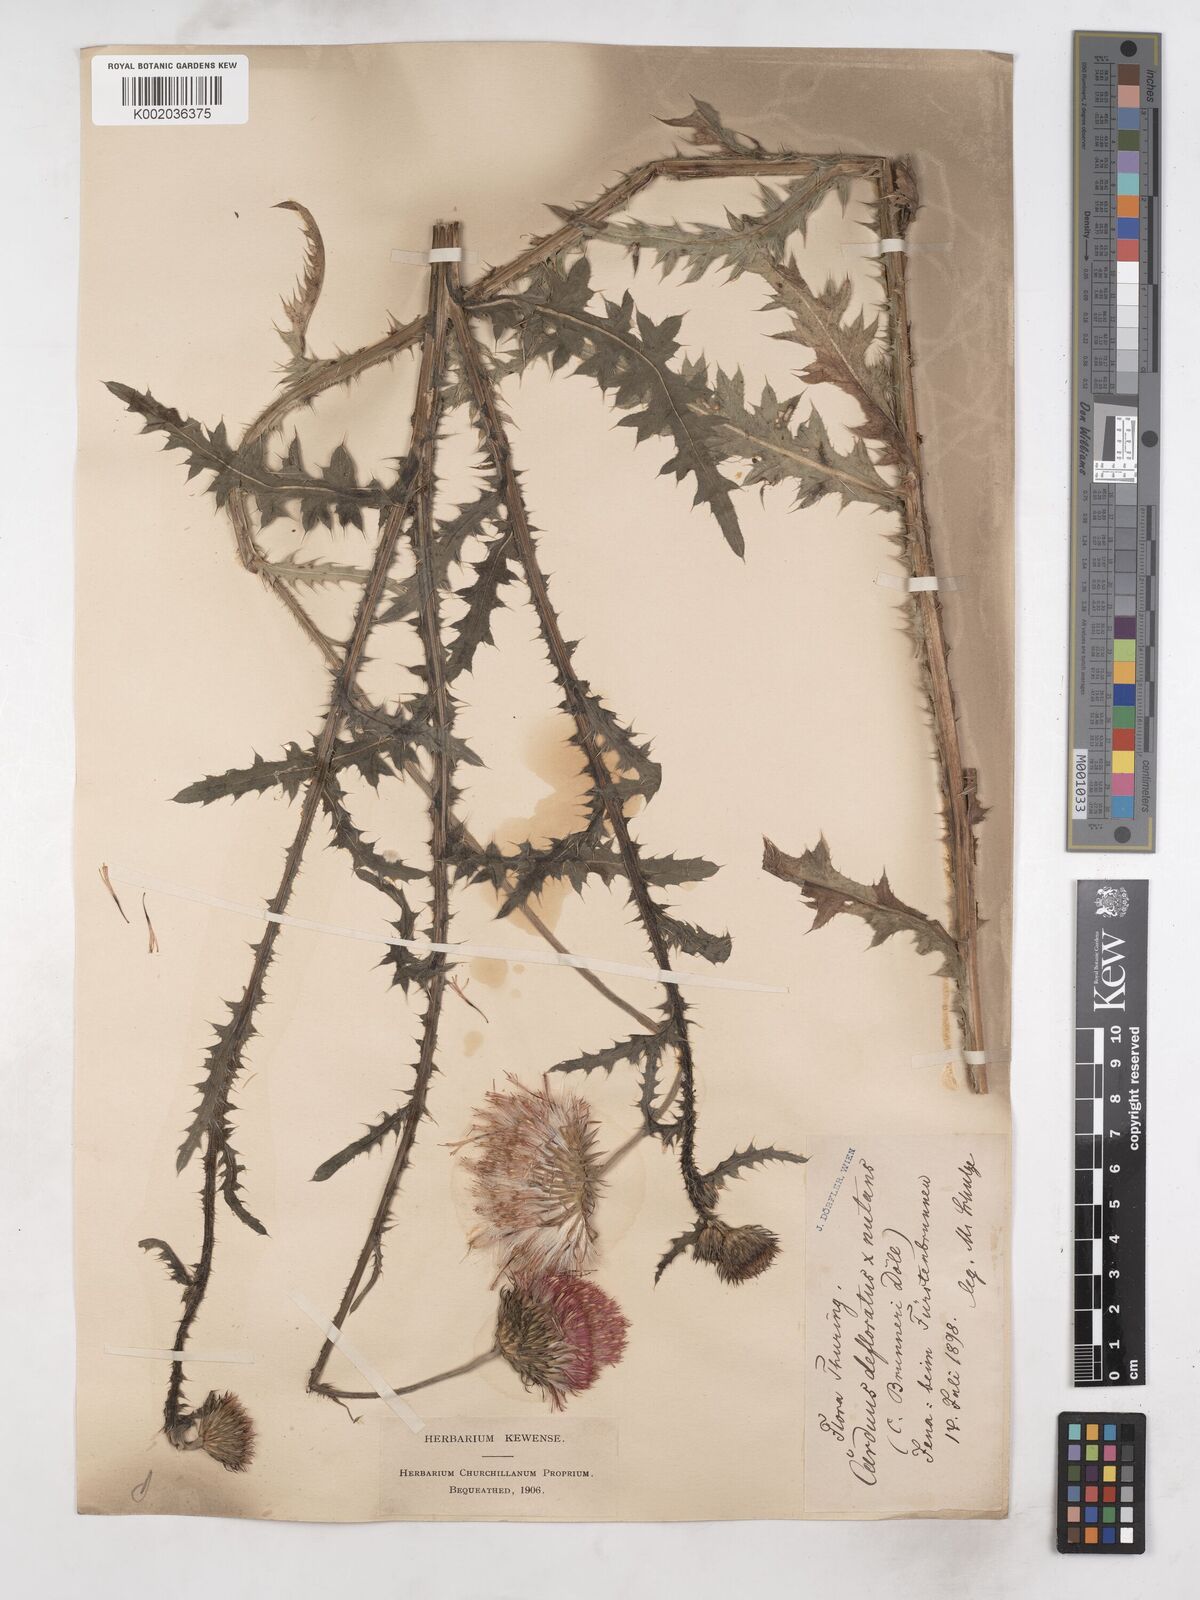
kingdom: Plantae
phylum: Tracheophyta
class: Magnoliopsida
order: Asterales
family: Asteraceae
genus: Carduus
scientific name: Carduus defloratus
